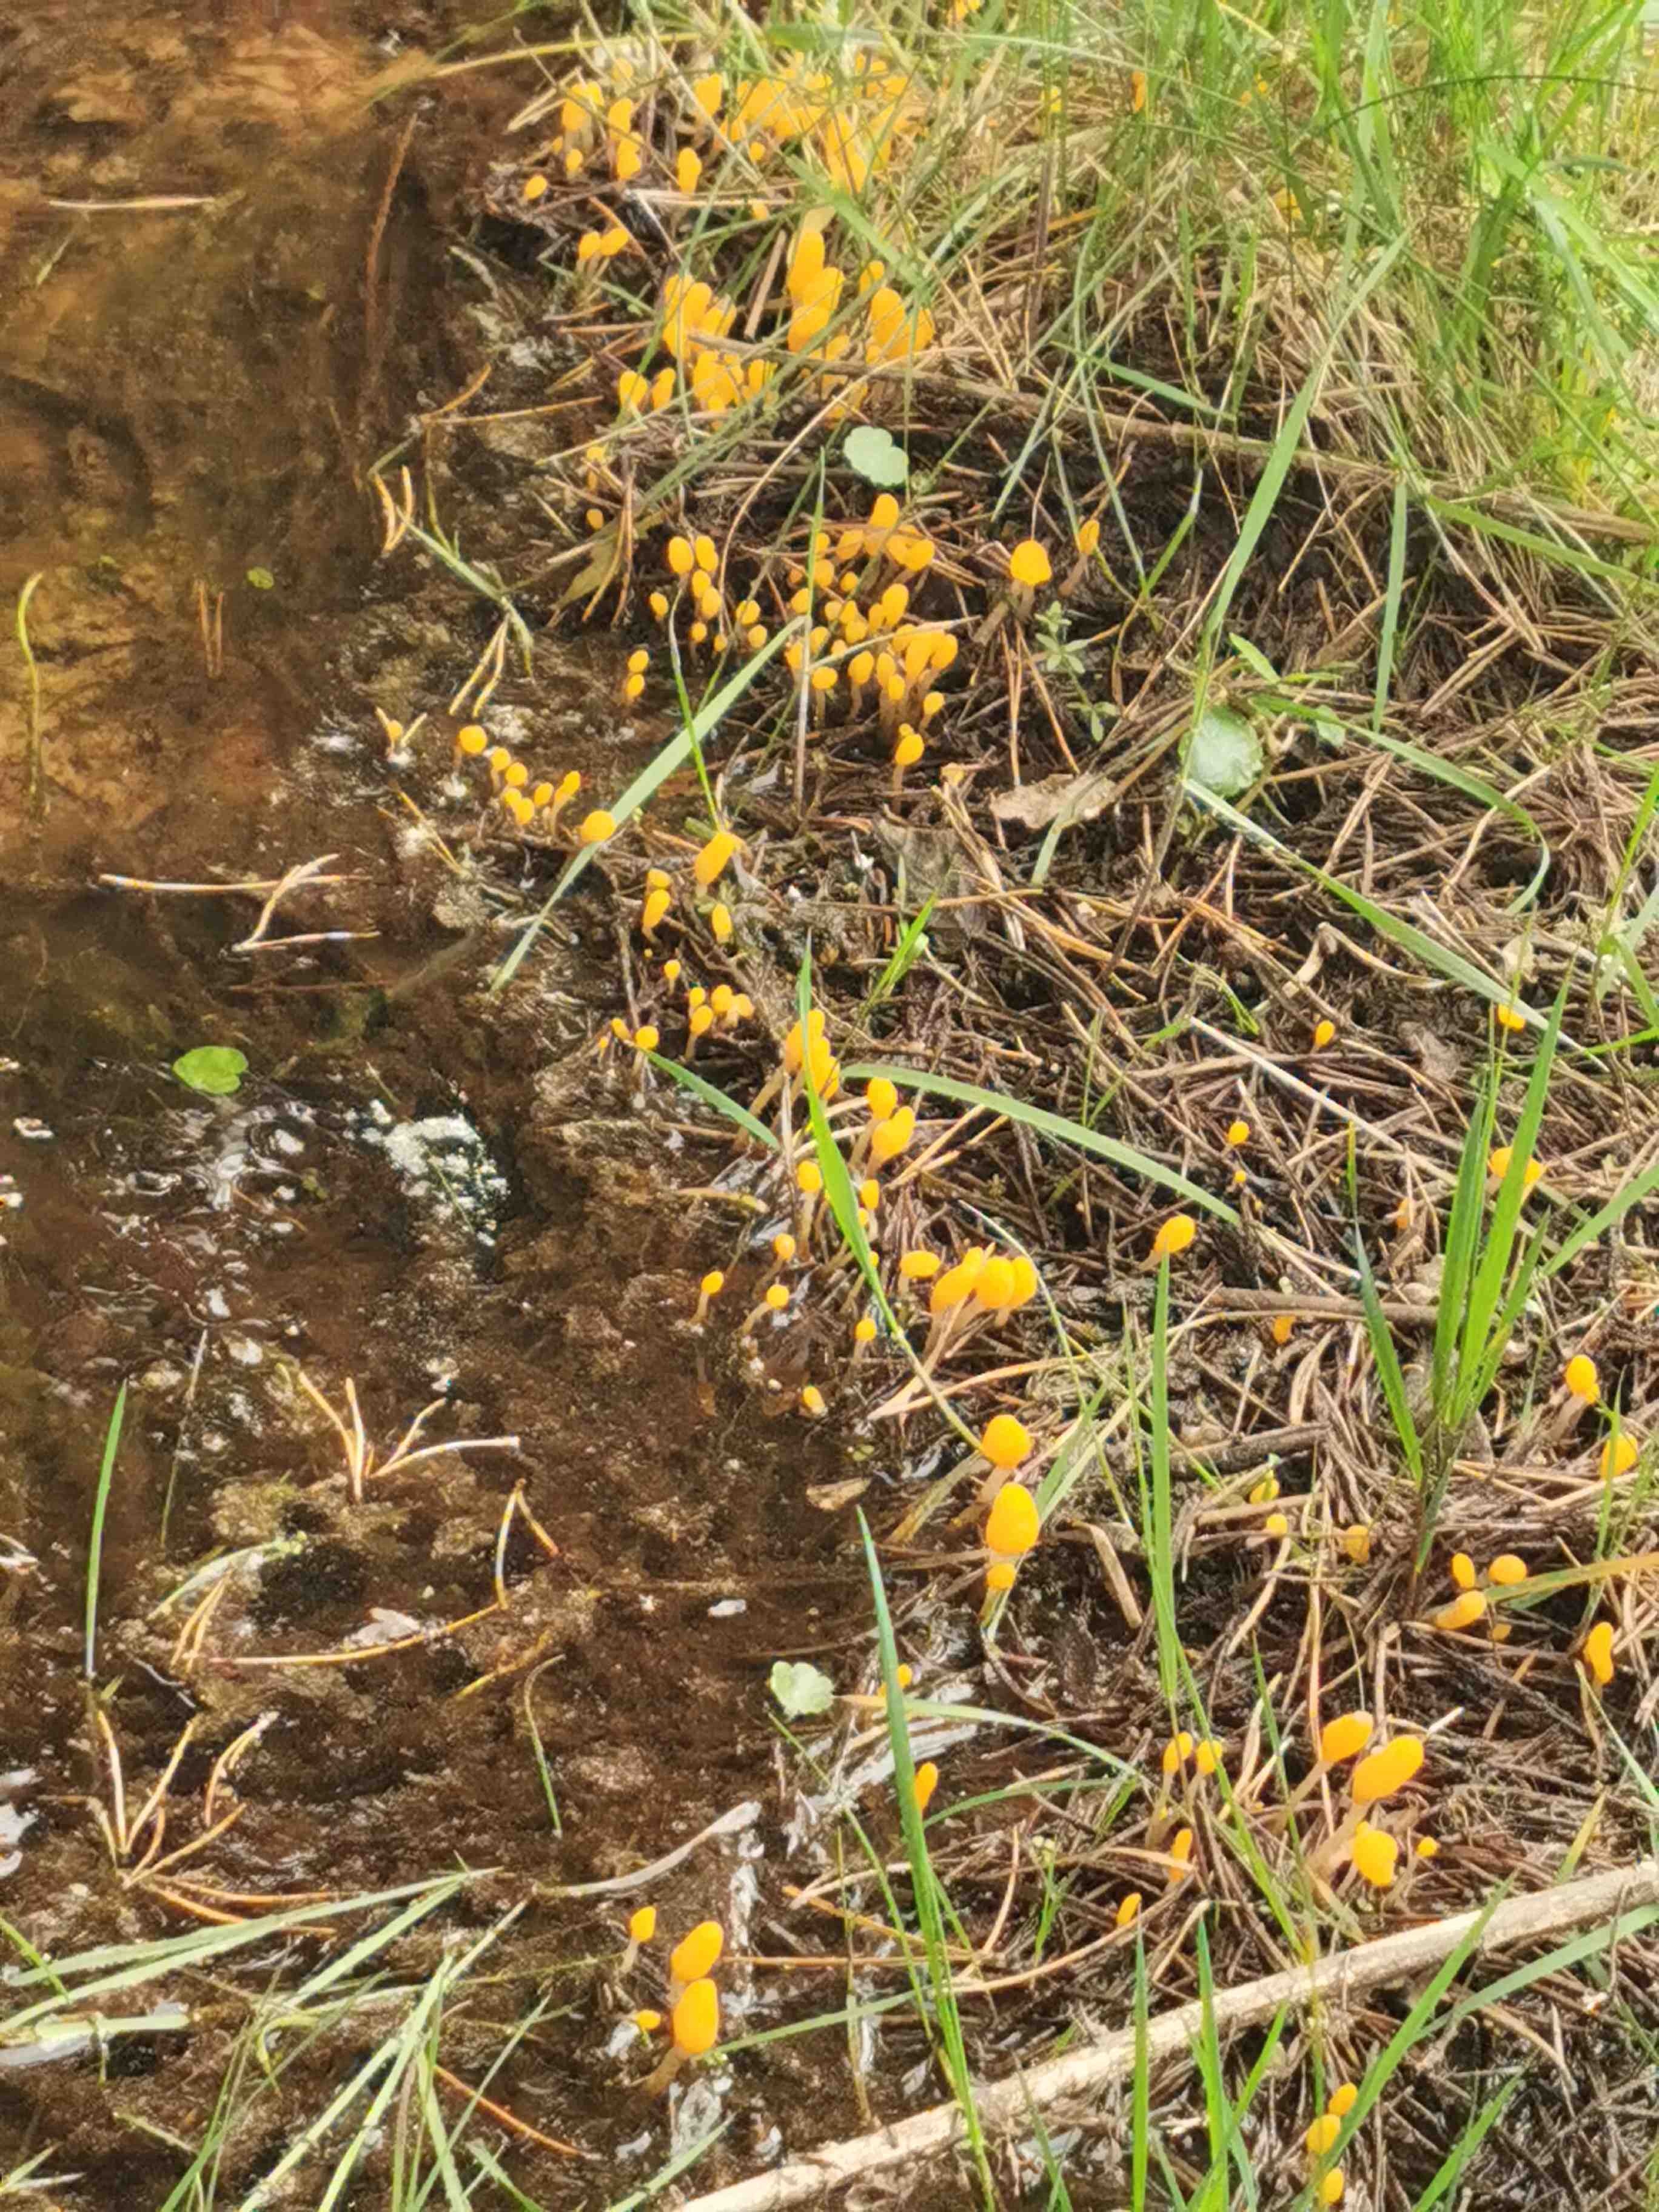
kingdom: Fungi
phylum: Ascomycota
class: Leotiomycetes
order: Helotiales
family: Cenangiaceae
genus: Mitrula
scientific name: Mitrula paludosa
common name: gul nøkketunge
